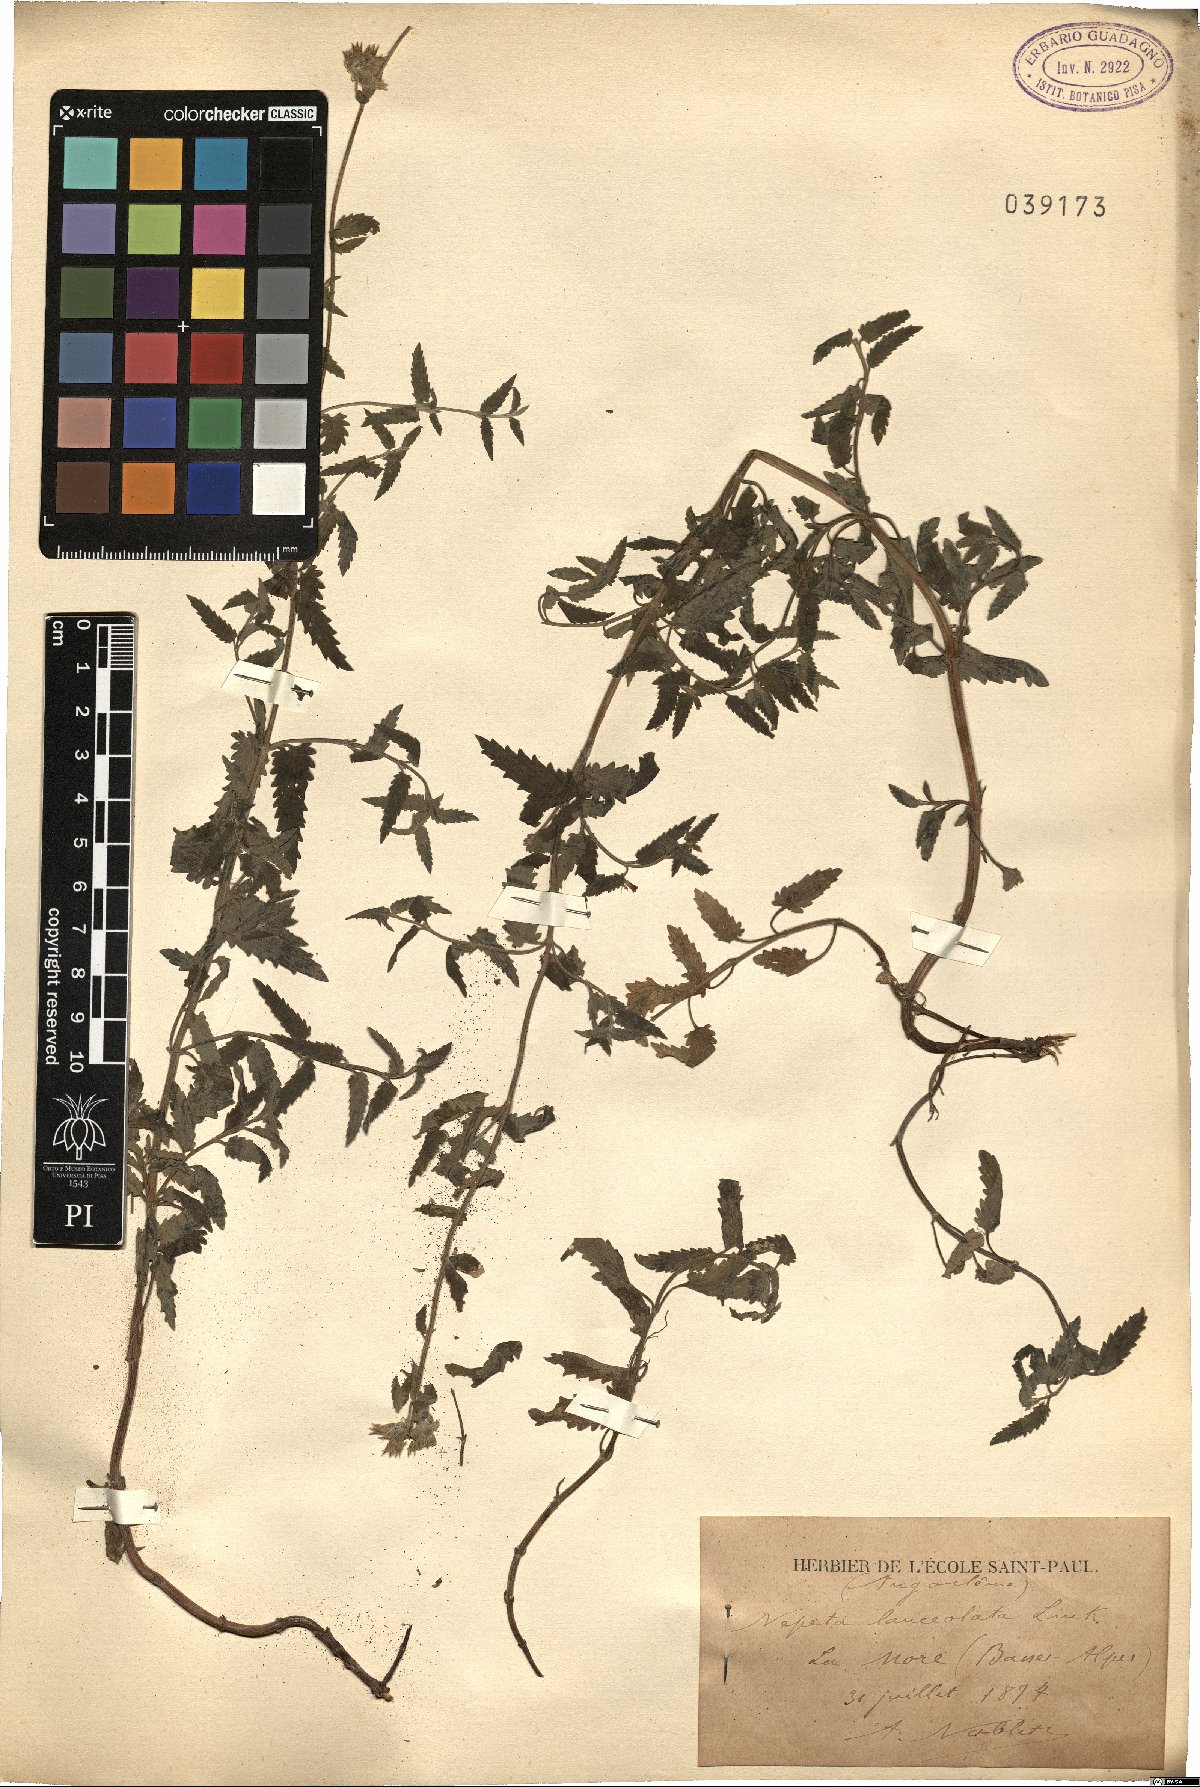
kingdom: Plantae
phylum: Tracheophyta
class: Magnoliopsida
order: Lamiales
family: Lamiaceae
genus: Nepeta
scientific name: Nepeta nepetella
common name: Lesser catmint
